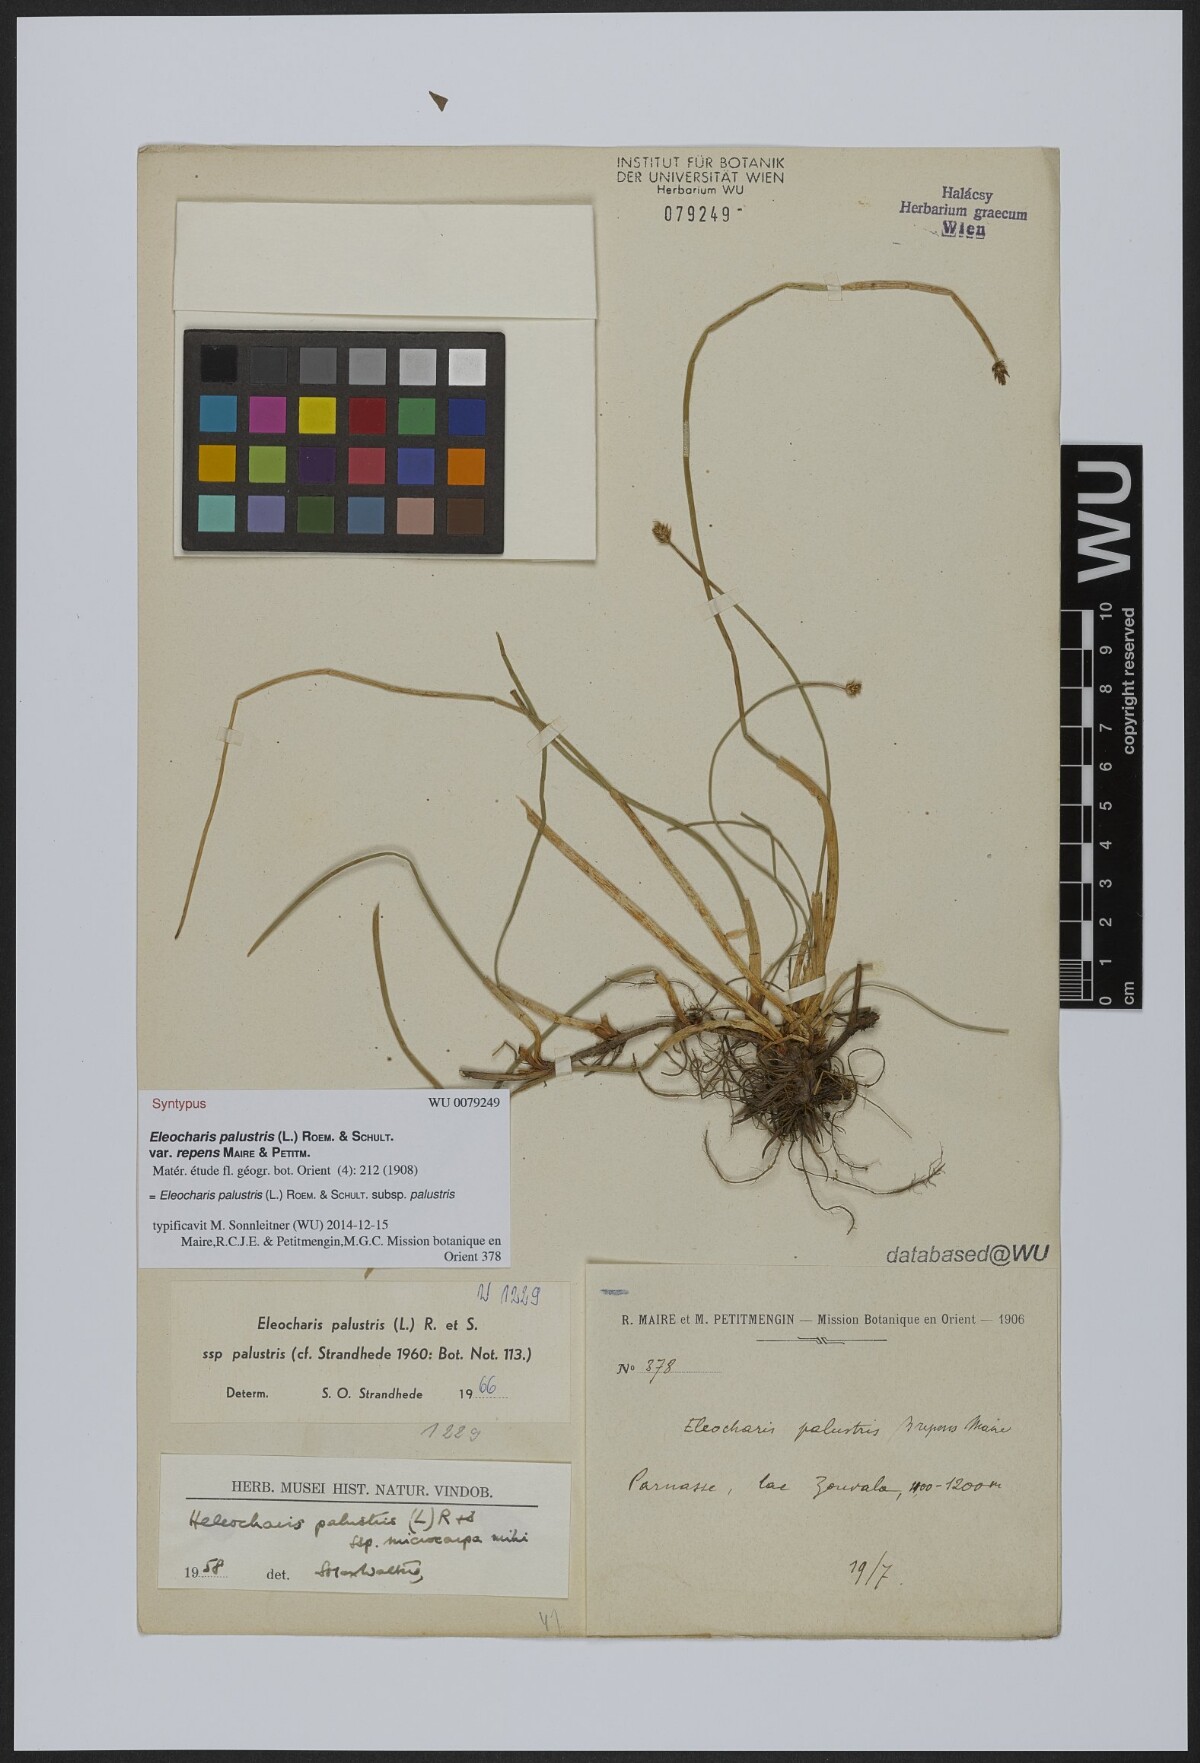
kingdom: Plantae
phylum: Tracheophyta
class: Liliopsida
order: Poales
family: Cyperaceae
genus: Eleocharis
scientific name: Eleocharis palustris
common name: Common spike-rush
